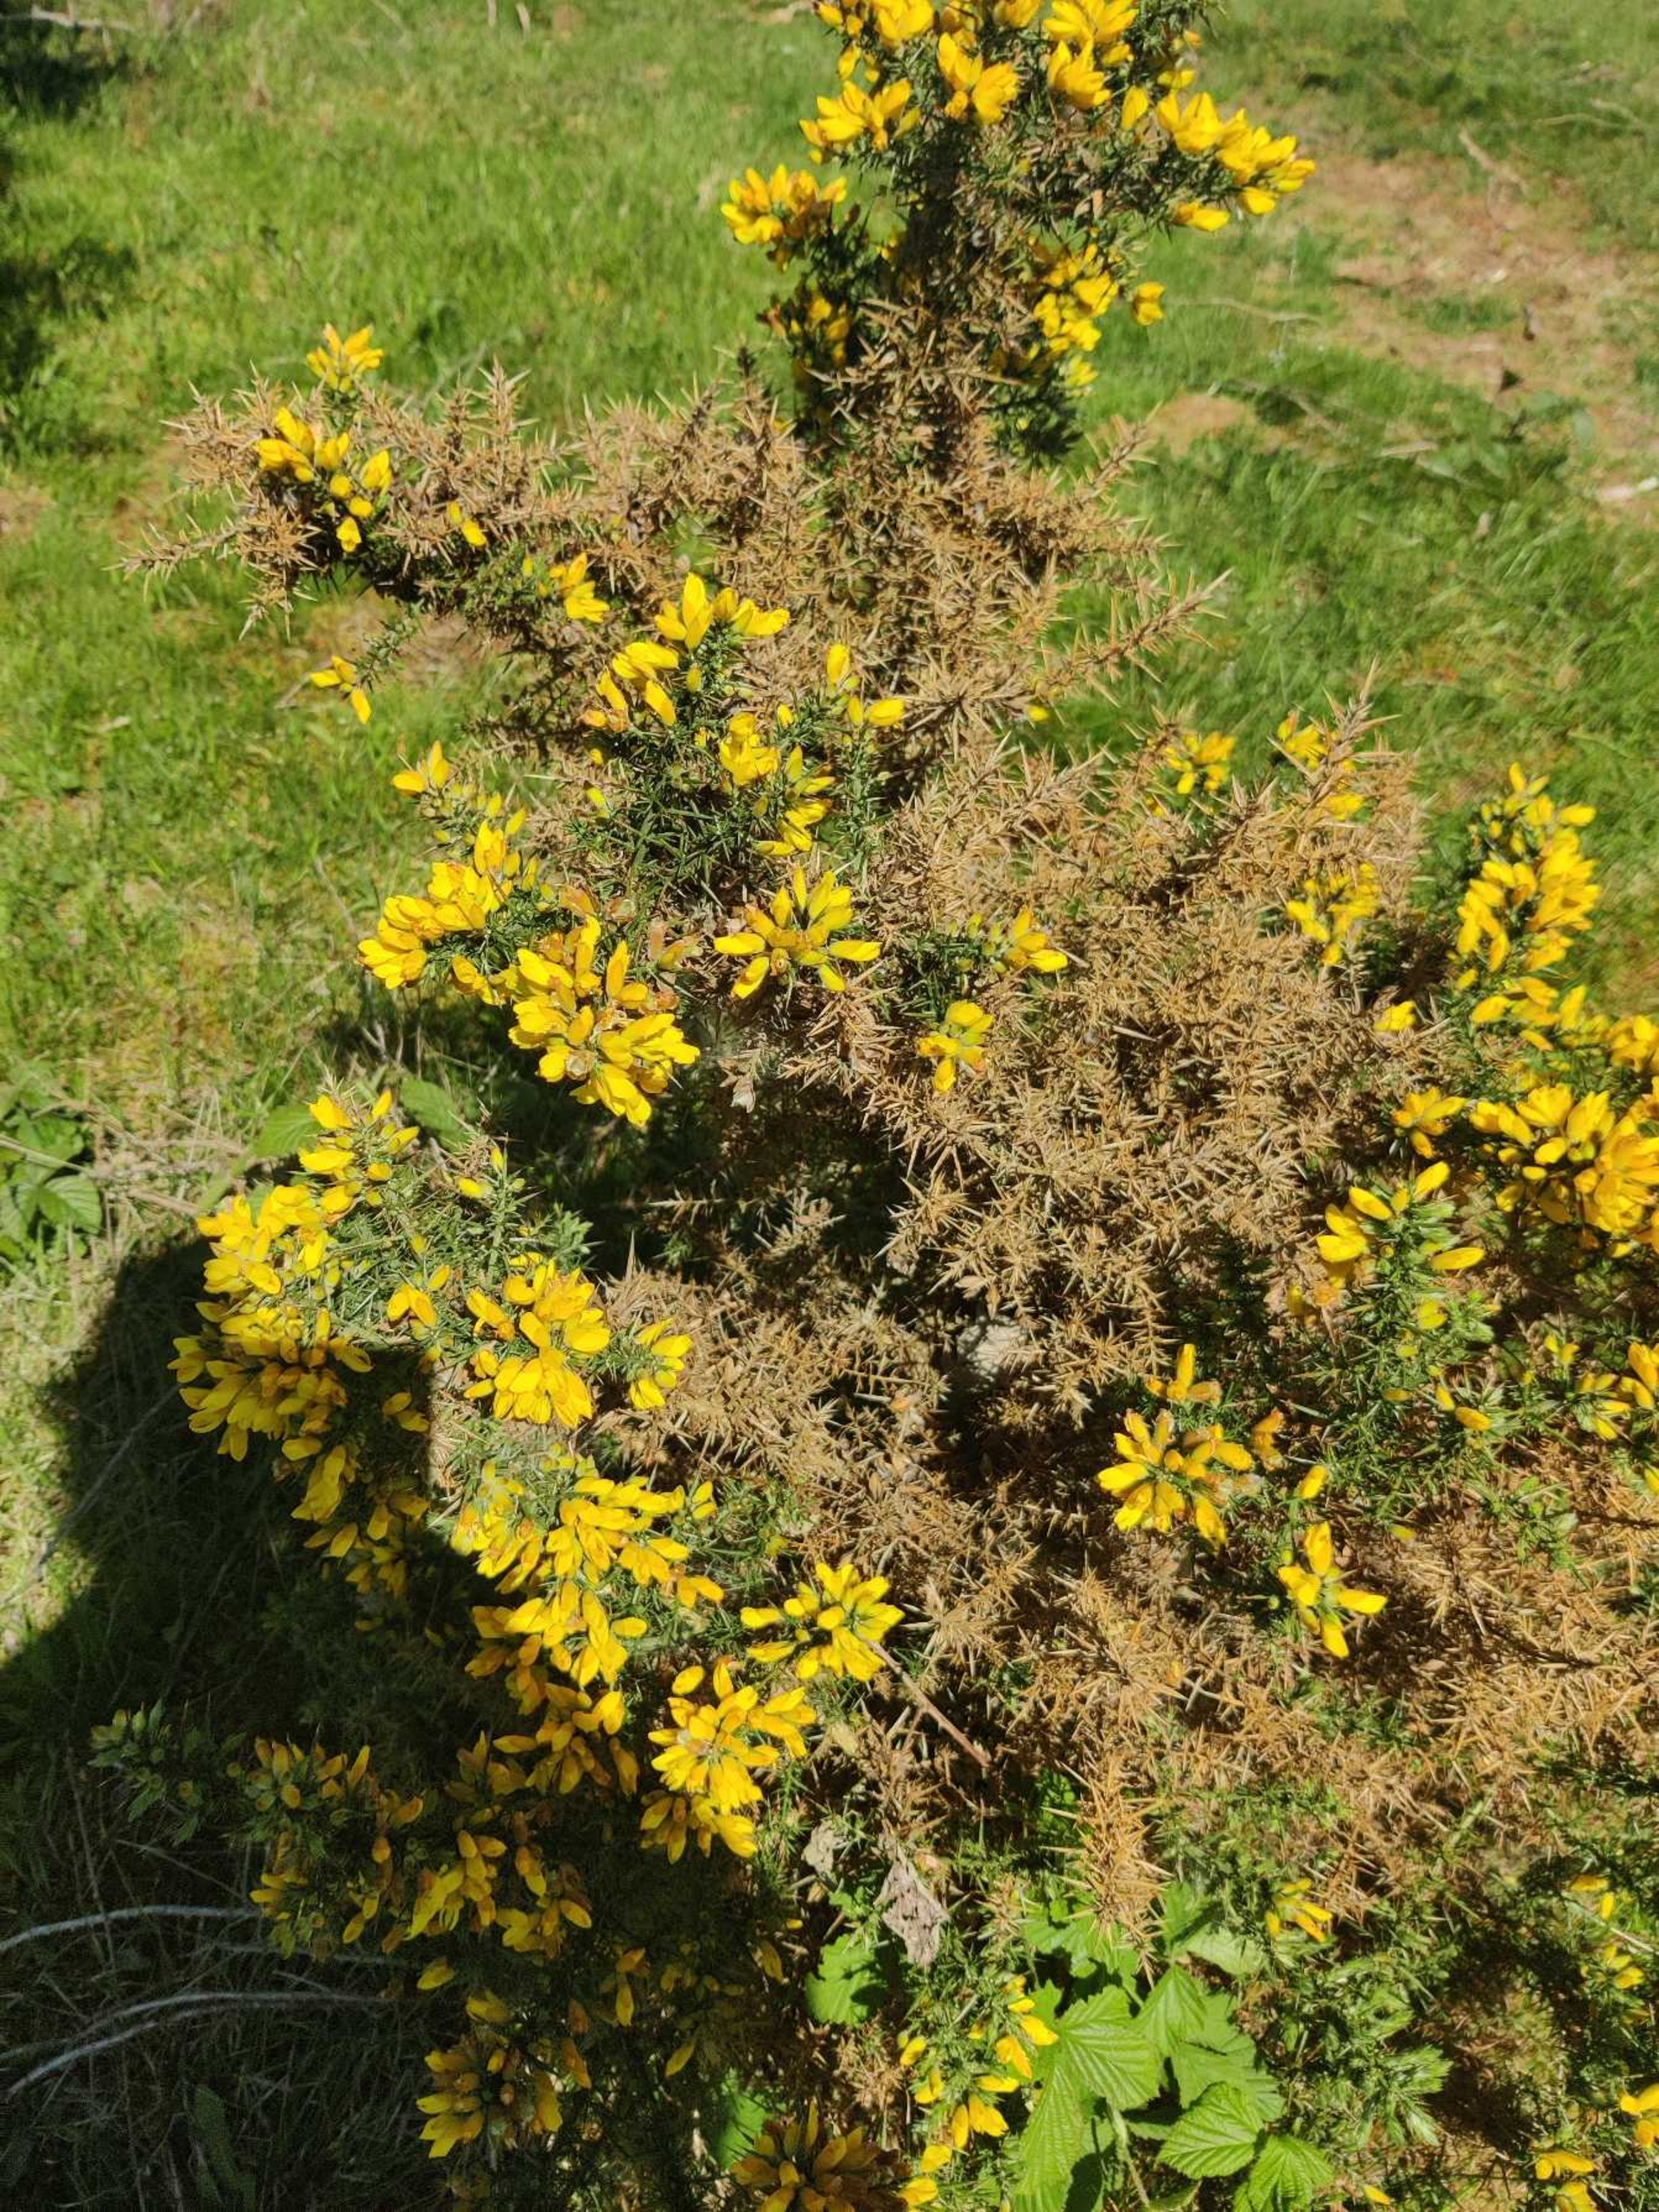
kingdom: Plantae
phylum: Tracheophyta
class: Magnoliopsida
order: Fabales
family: Fabaceae
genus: Ulex
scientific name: Ulex europaeus
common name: Tornblad
